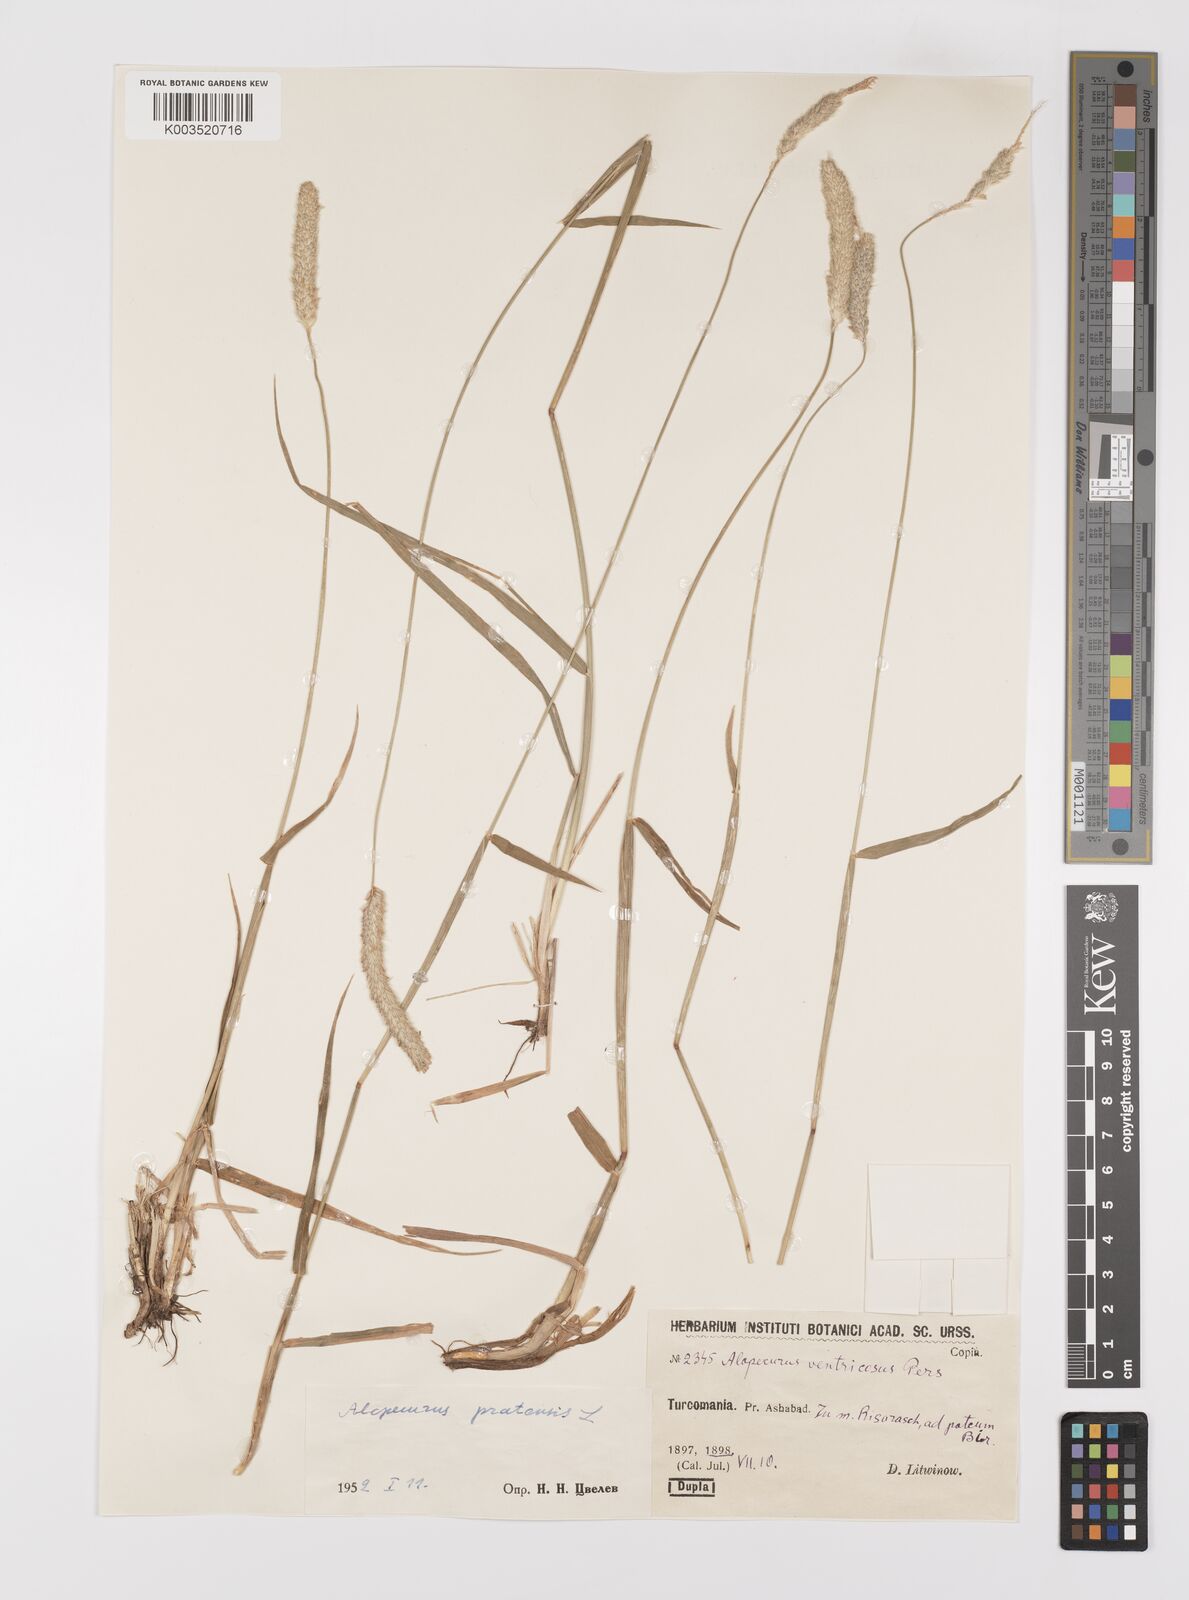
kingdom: Plantae
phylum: Tracheophyta
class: Liliopsida
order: Poales
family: Poaceae
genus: Alopecurus
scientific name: Alopecurus pratensis
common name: Meadow foxtail
